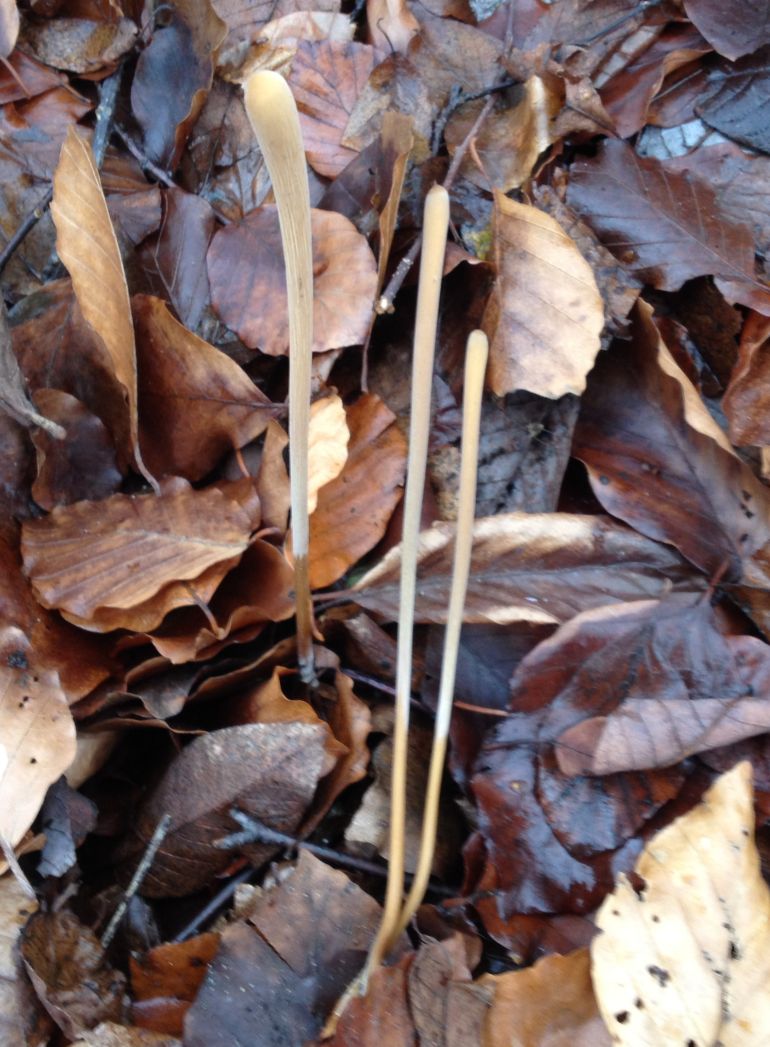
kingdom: Fungi
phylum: Basidiomycota
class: Agaricomycetes
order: Agaricales
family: Typhulaceae
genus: Typhula
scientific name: Typhula fistulosa
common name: pibet rørkølle
